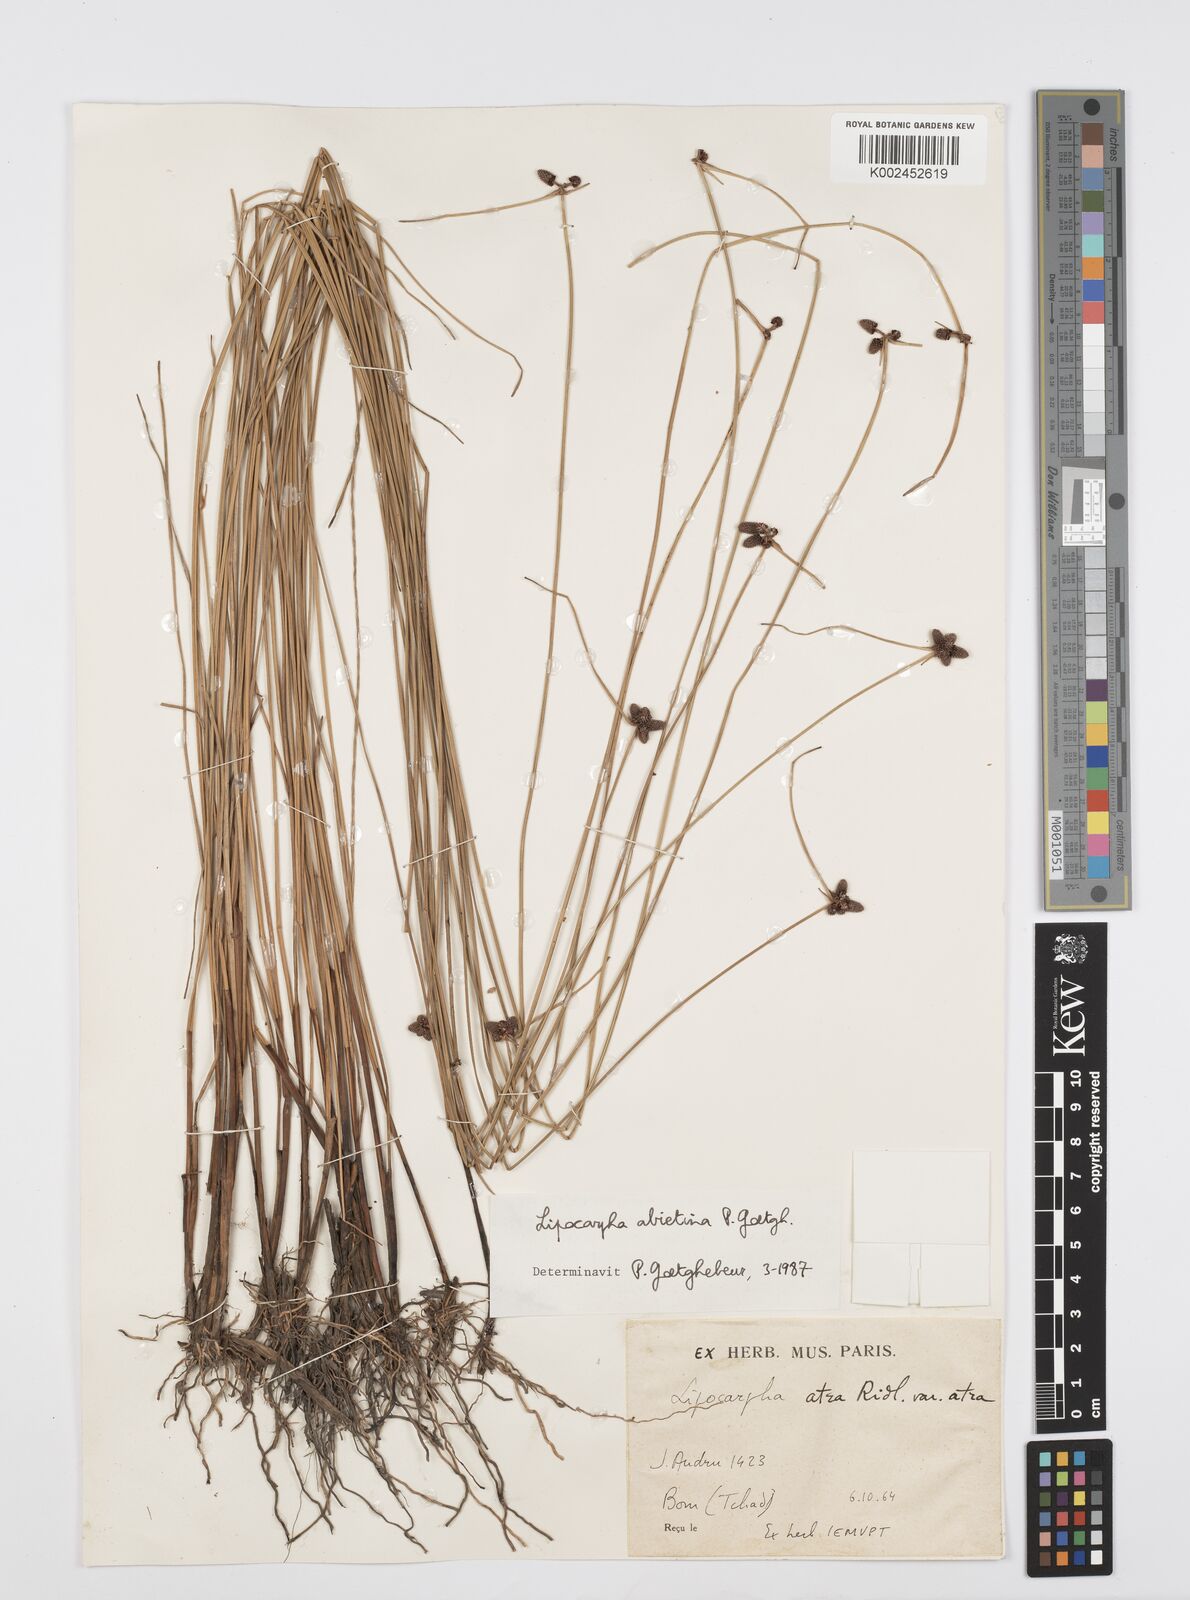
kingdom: Plantae
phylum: Tracheophyta
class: Liliopsida
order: Poales
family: Cyperaceae
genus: Cyperus
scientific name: Cyperus lipoater
